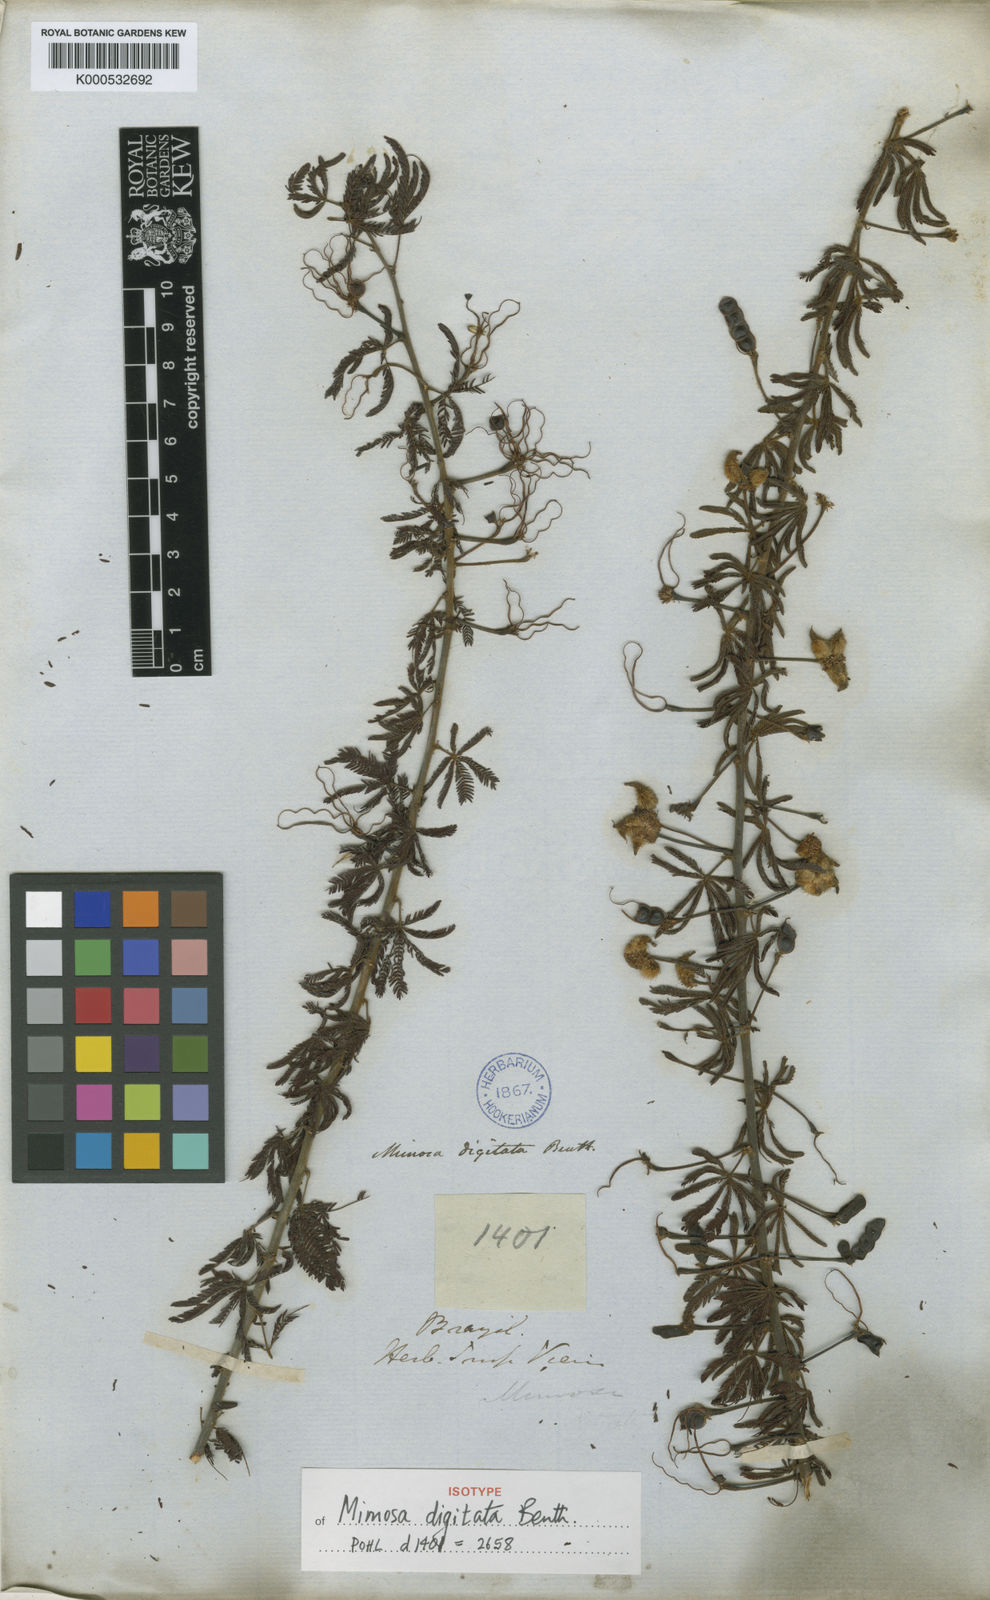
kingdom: Plantae
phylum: Tracheophyta
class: Magnoliopsida
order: Fabales
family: Fabaceae
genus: Mimosa
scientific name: Mimosa digitata
